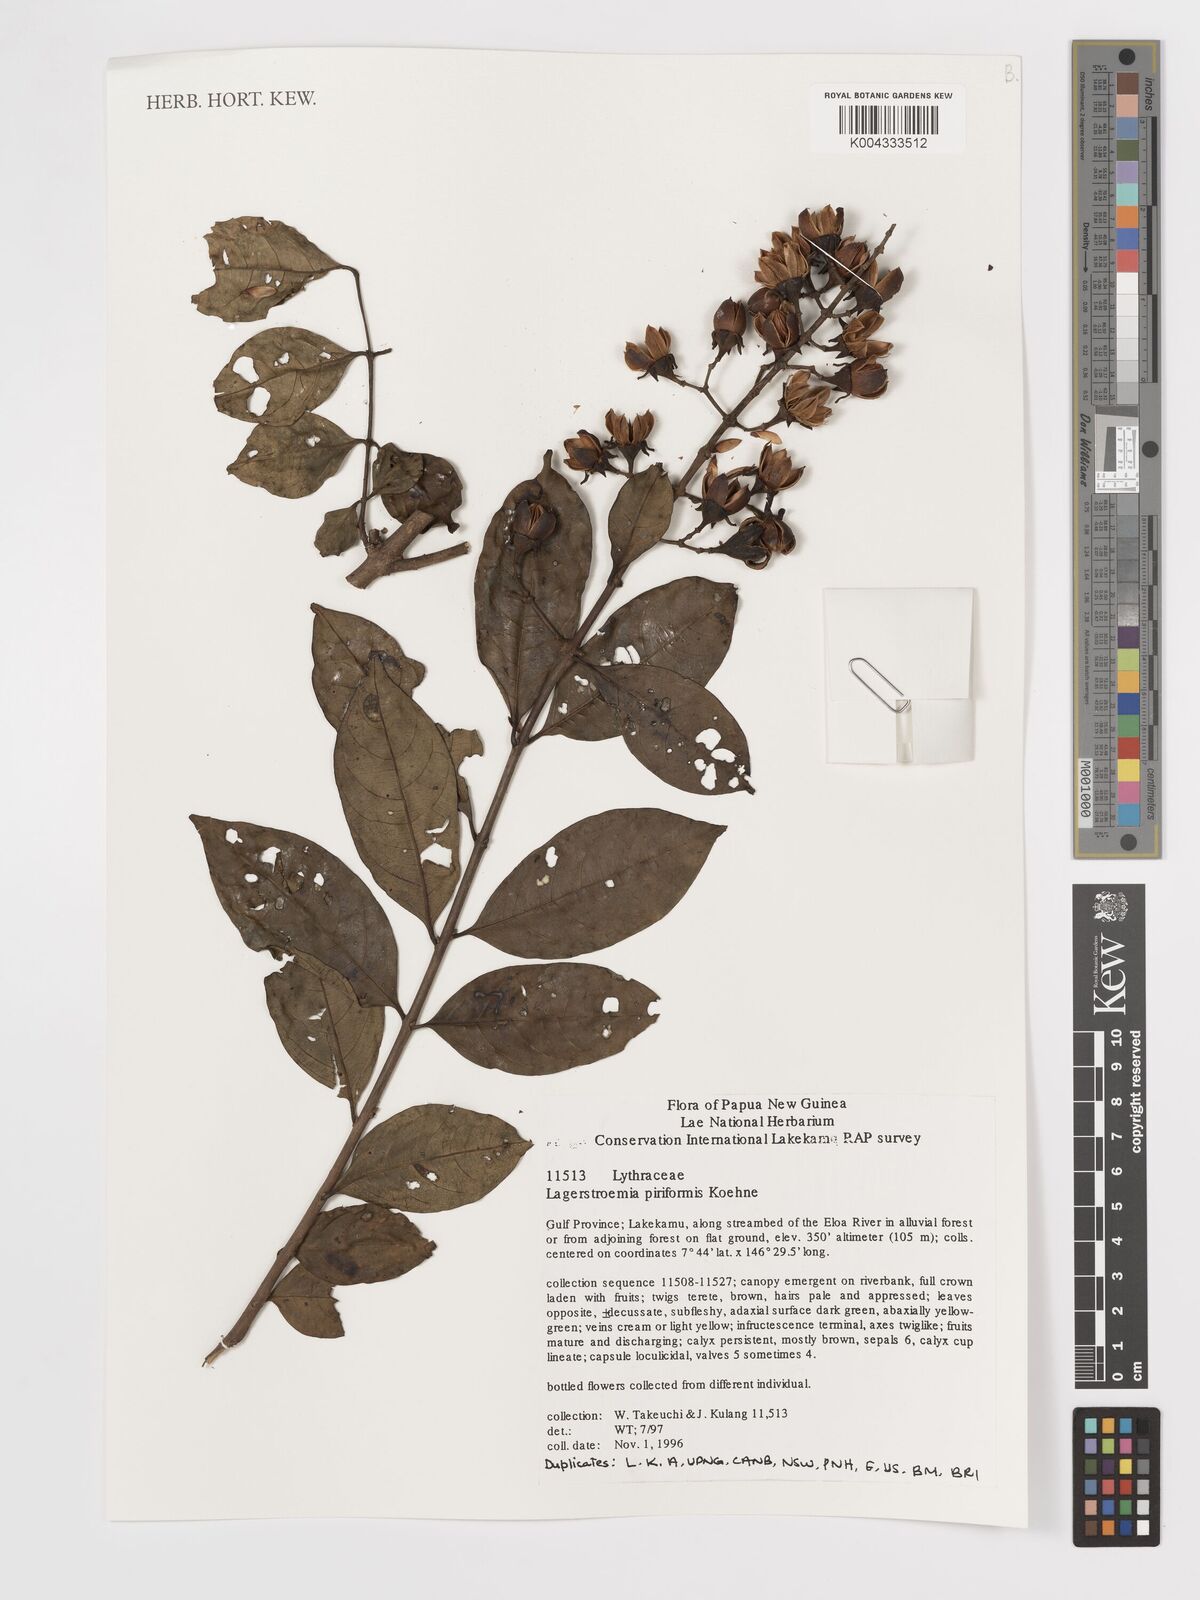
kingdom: Plantae
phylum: Tracheophyta
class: Magnoliopsida
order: Myrtales
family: Lythraceae
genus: Lagerstroemia
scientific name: Lagerstroemia celebica
